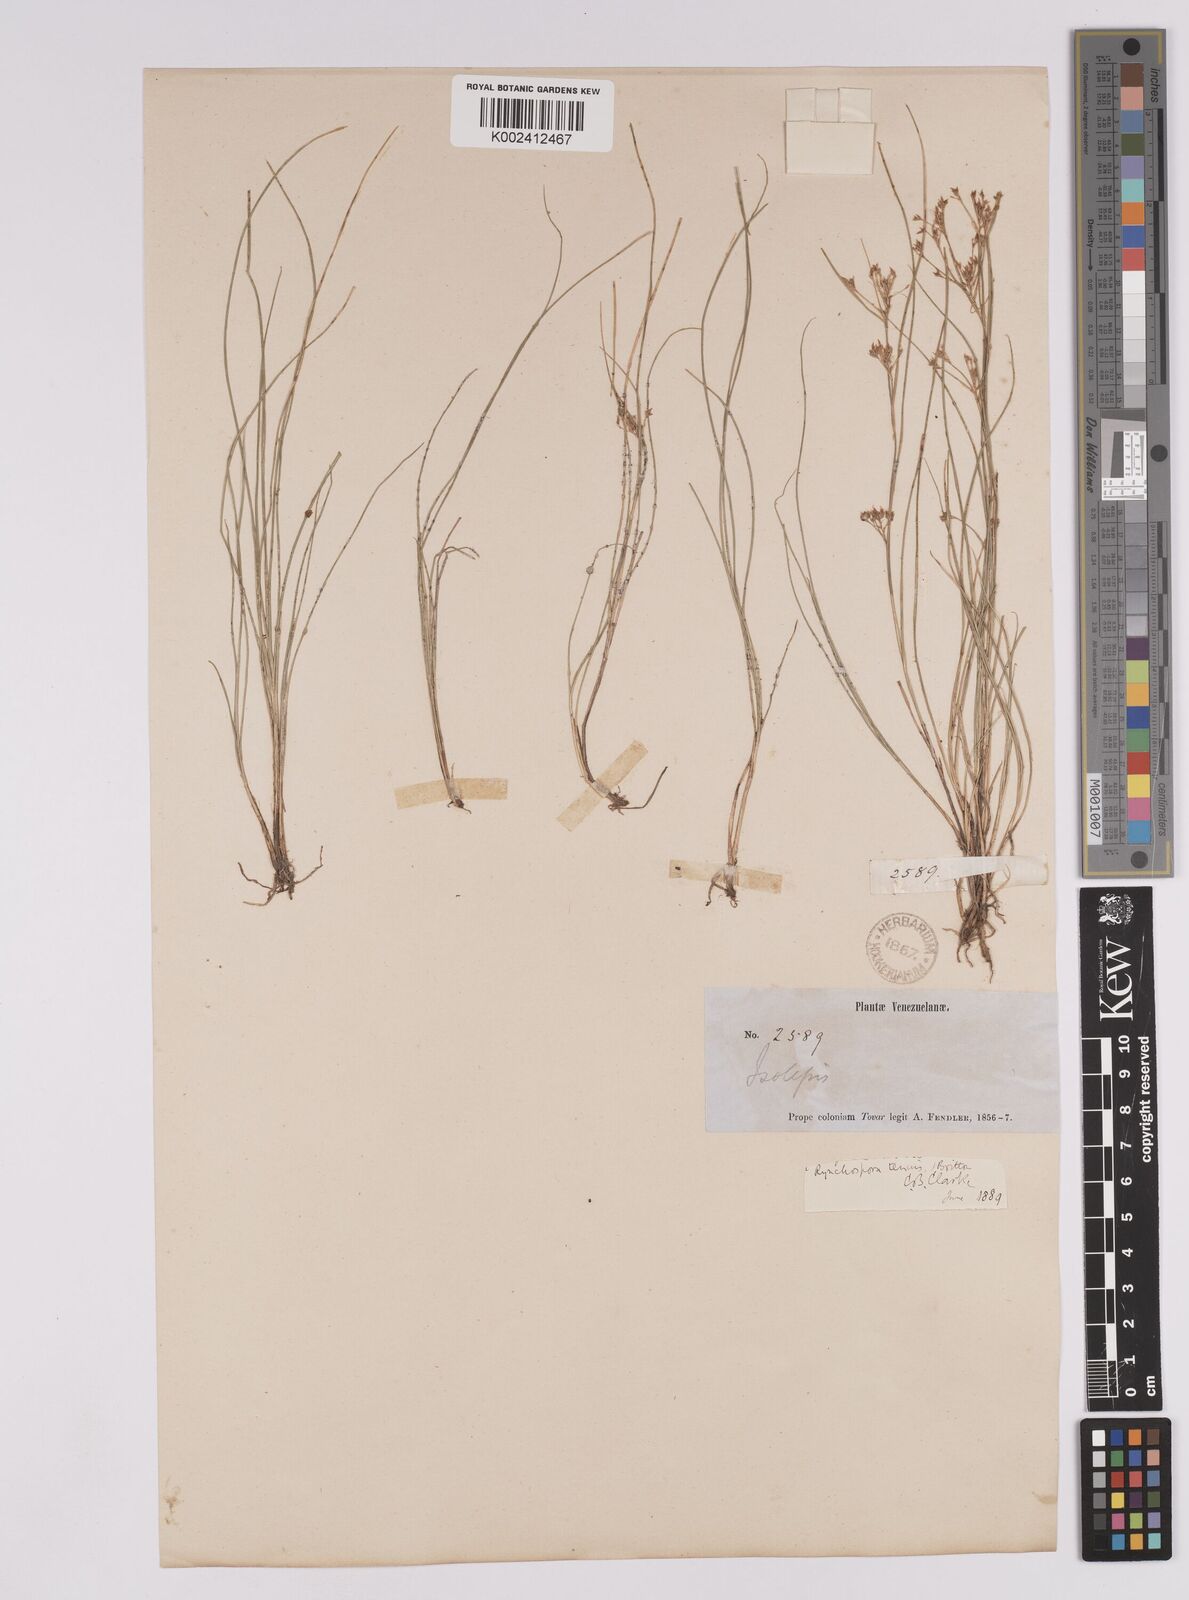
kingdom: Plantae
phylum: Tracheophyta
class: Liliopsida
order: Poales
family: Cyperaceae
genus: Rhynchospora
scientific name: Rhynchospora tenuis
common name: Quill beaksedge
